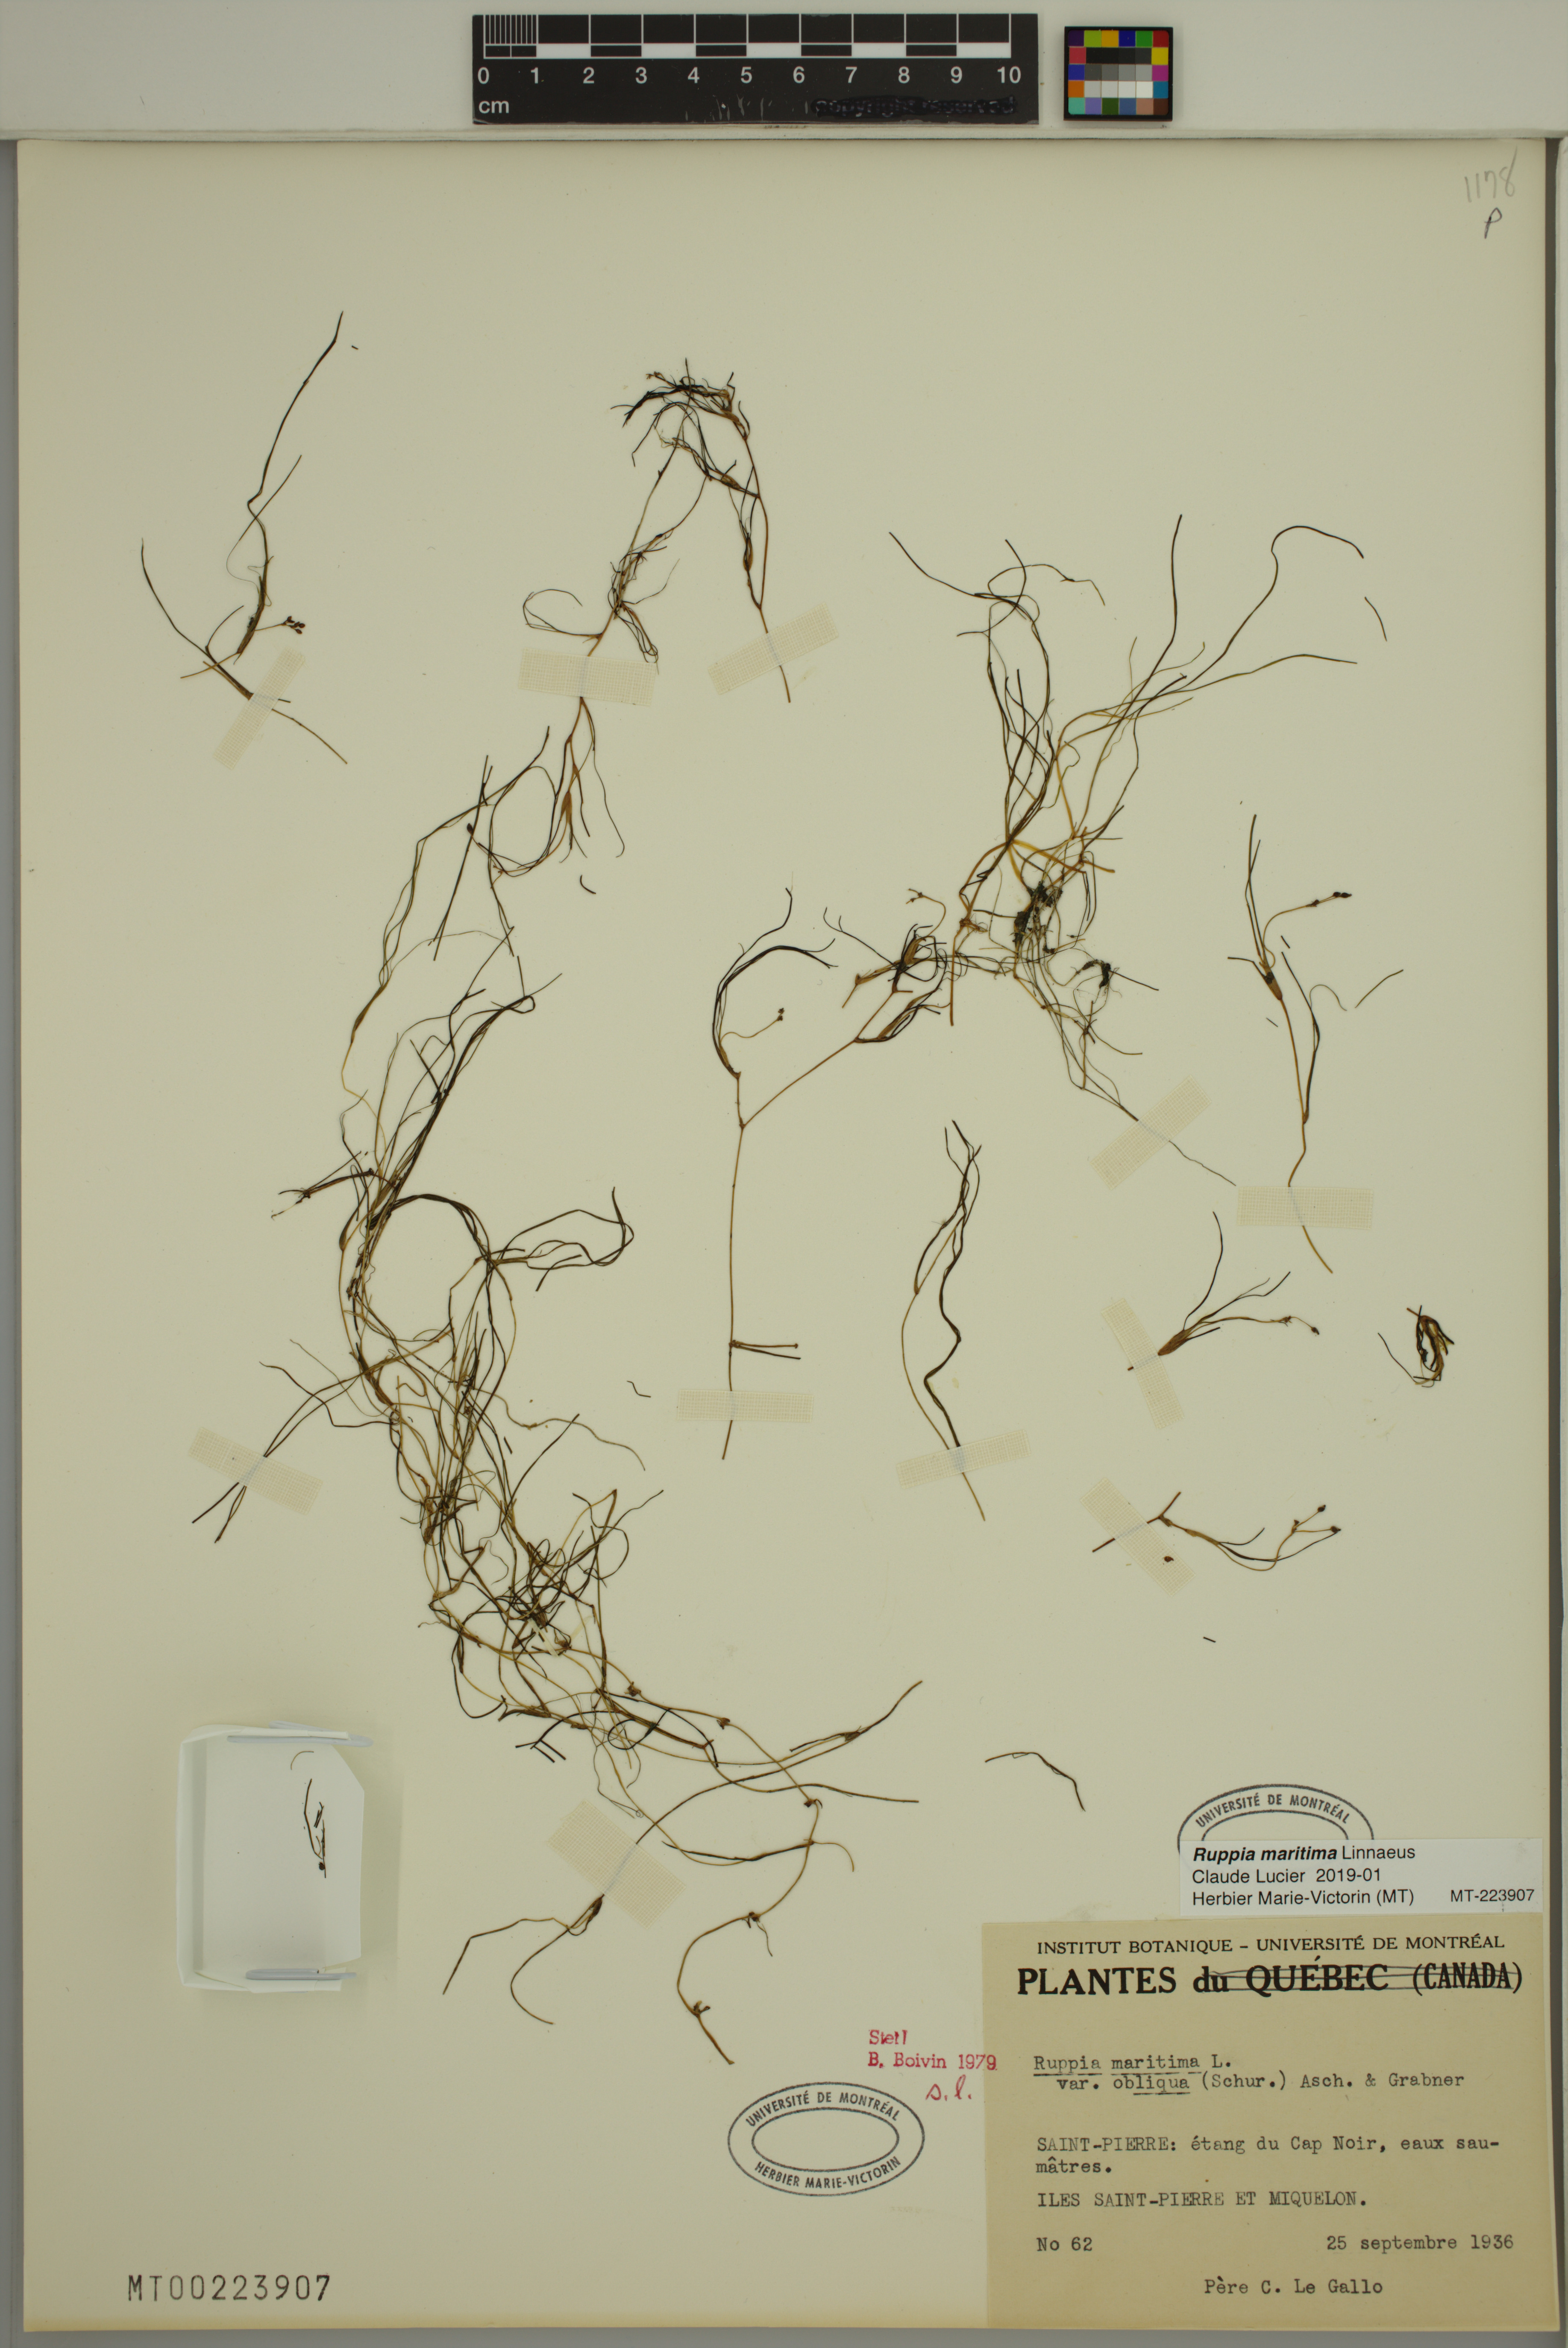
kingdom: Plantae
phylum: Tracheophyta
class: Liliopsida
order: Alismatales
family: Ruppiaceae
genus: Ruppia
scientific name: Ruppia maritima
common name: Beaked tasselweed
